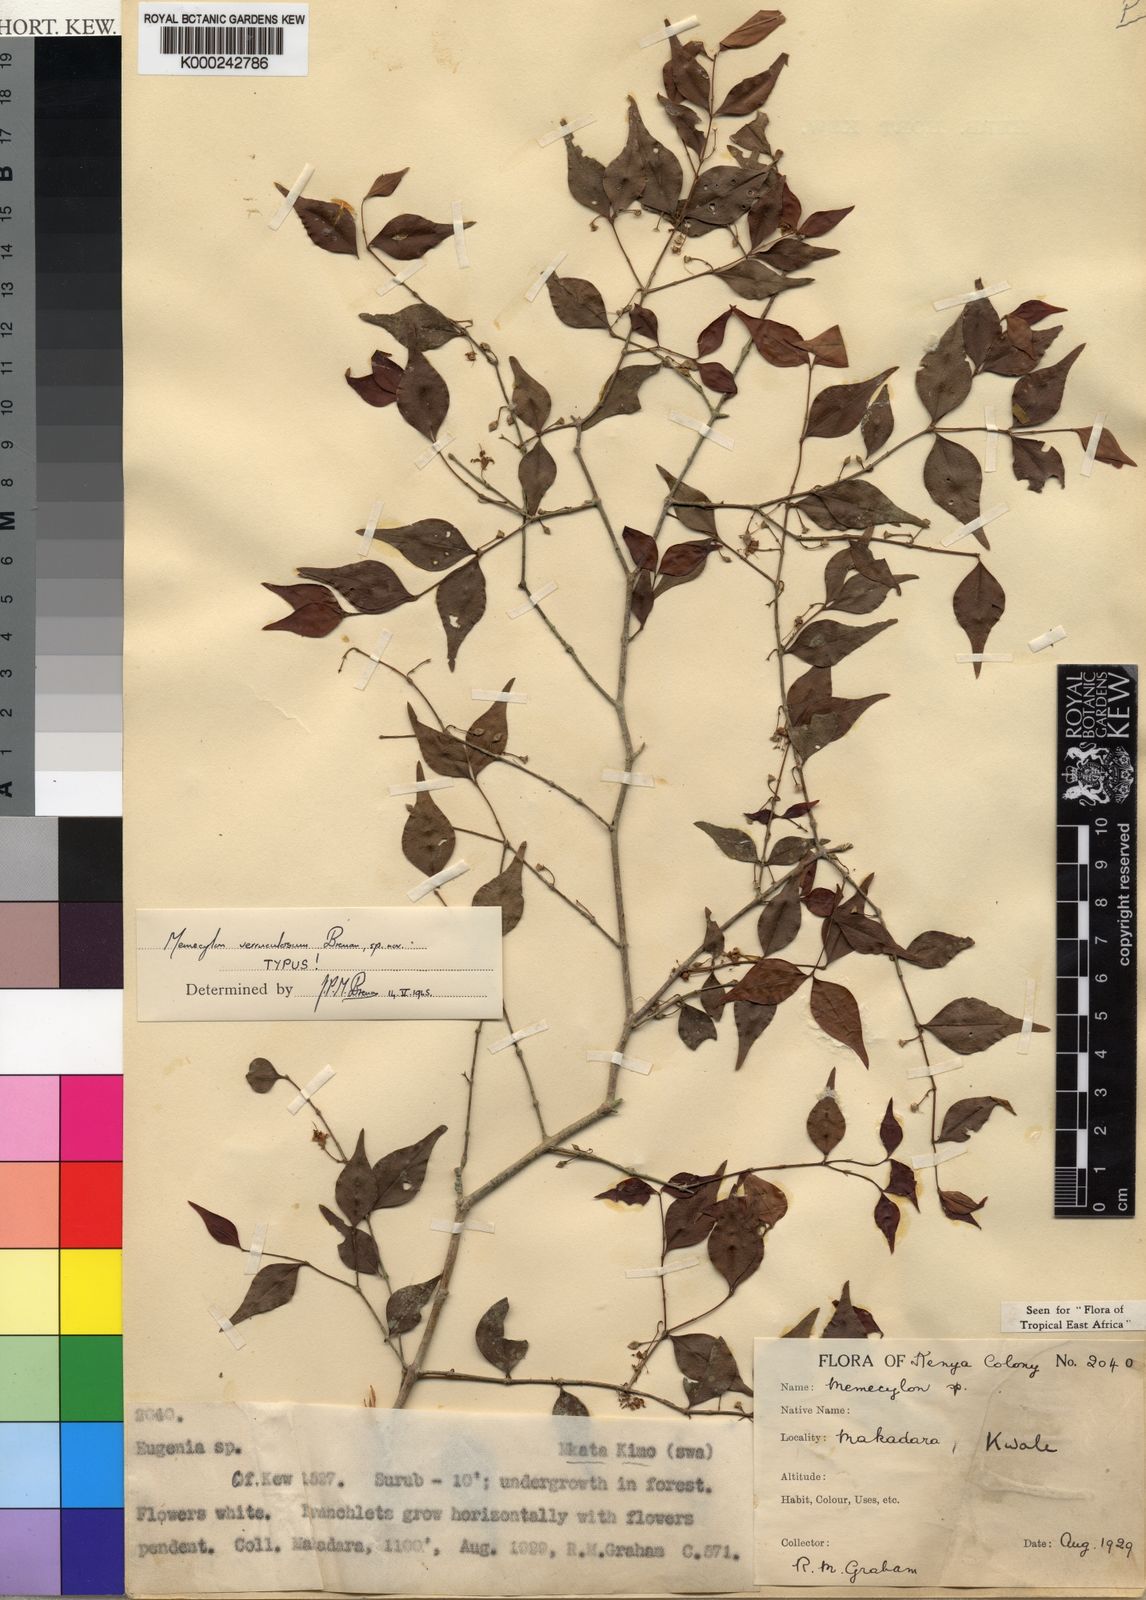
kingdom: Plantae
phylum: Tracheophyta
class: Magnoliopsida
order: Myrtales
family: Melastomataceae
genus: Memecylon
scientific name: Memecylon verruculosum
